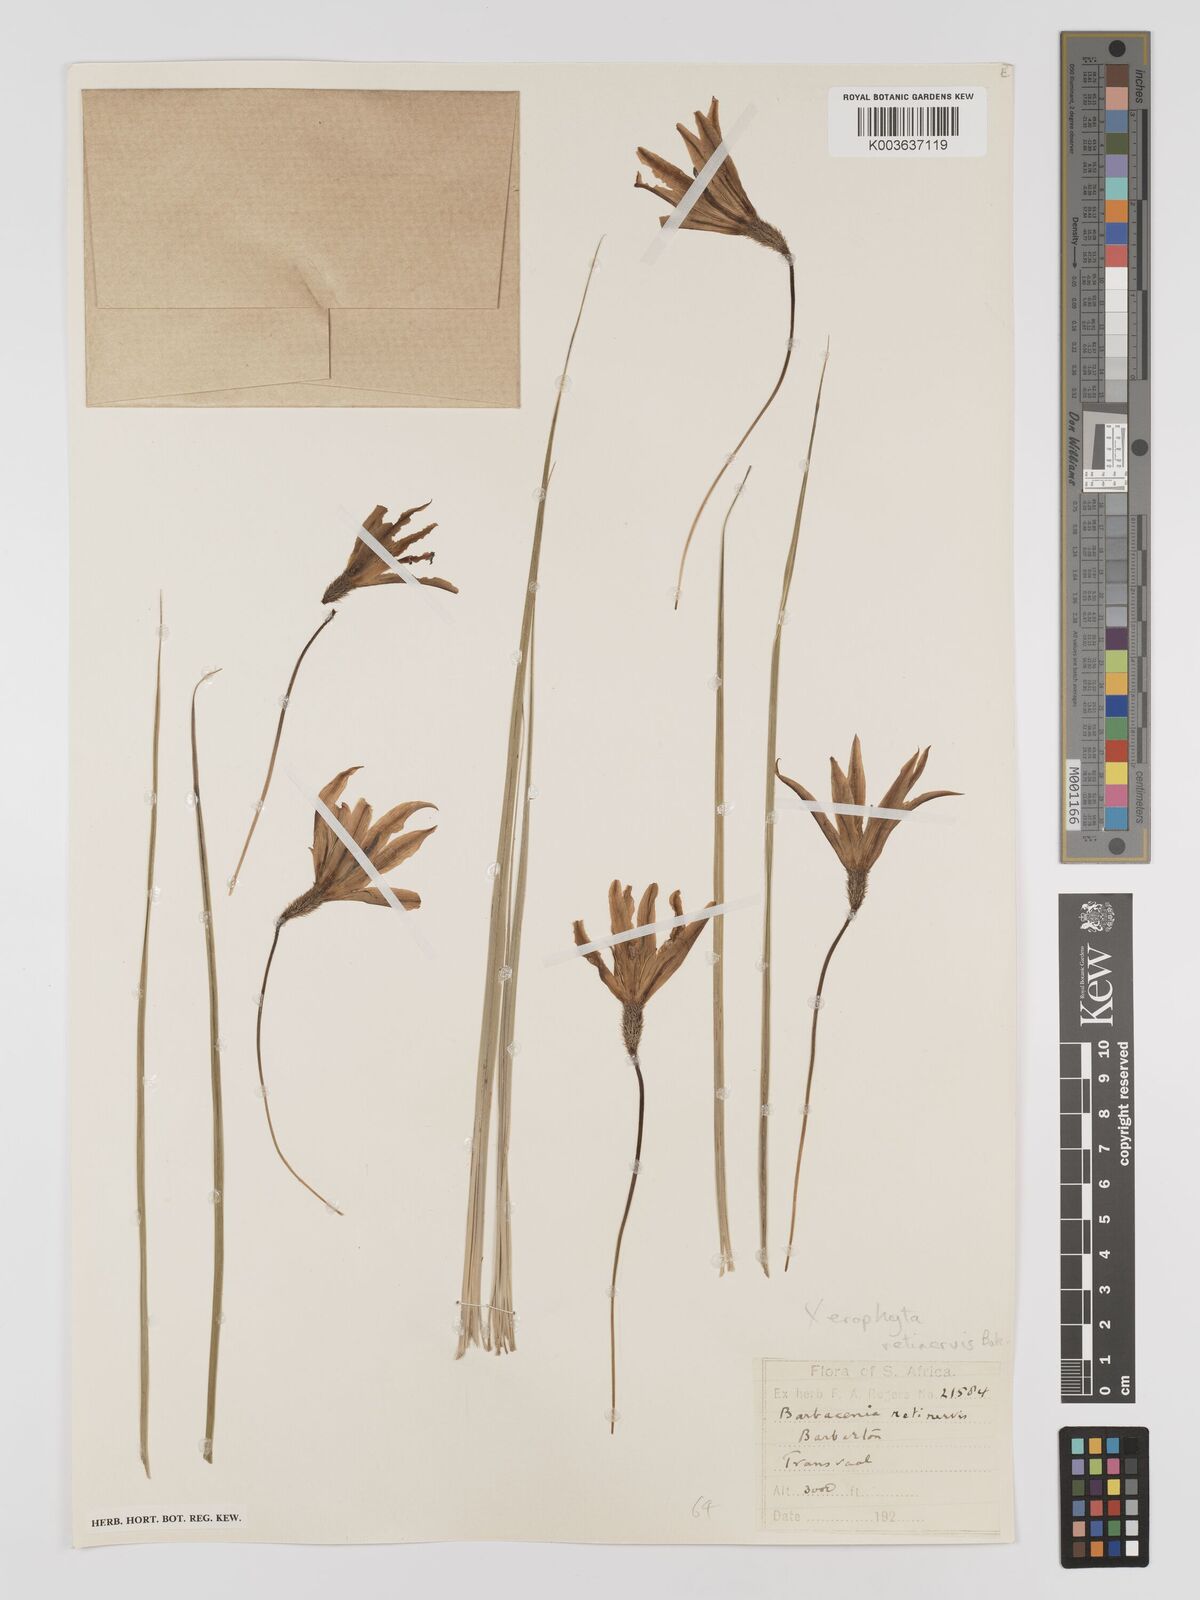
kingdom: Plantae
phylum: Tracheophyta
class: Liliopsida
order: Pandanales
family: Velloziaceae
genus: Xerophyta
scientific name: Xerophyta retinervis
